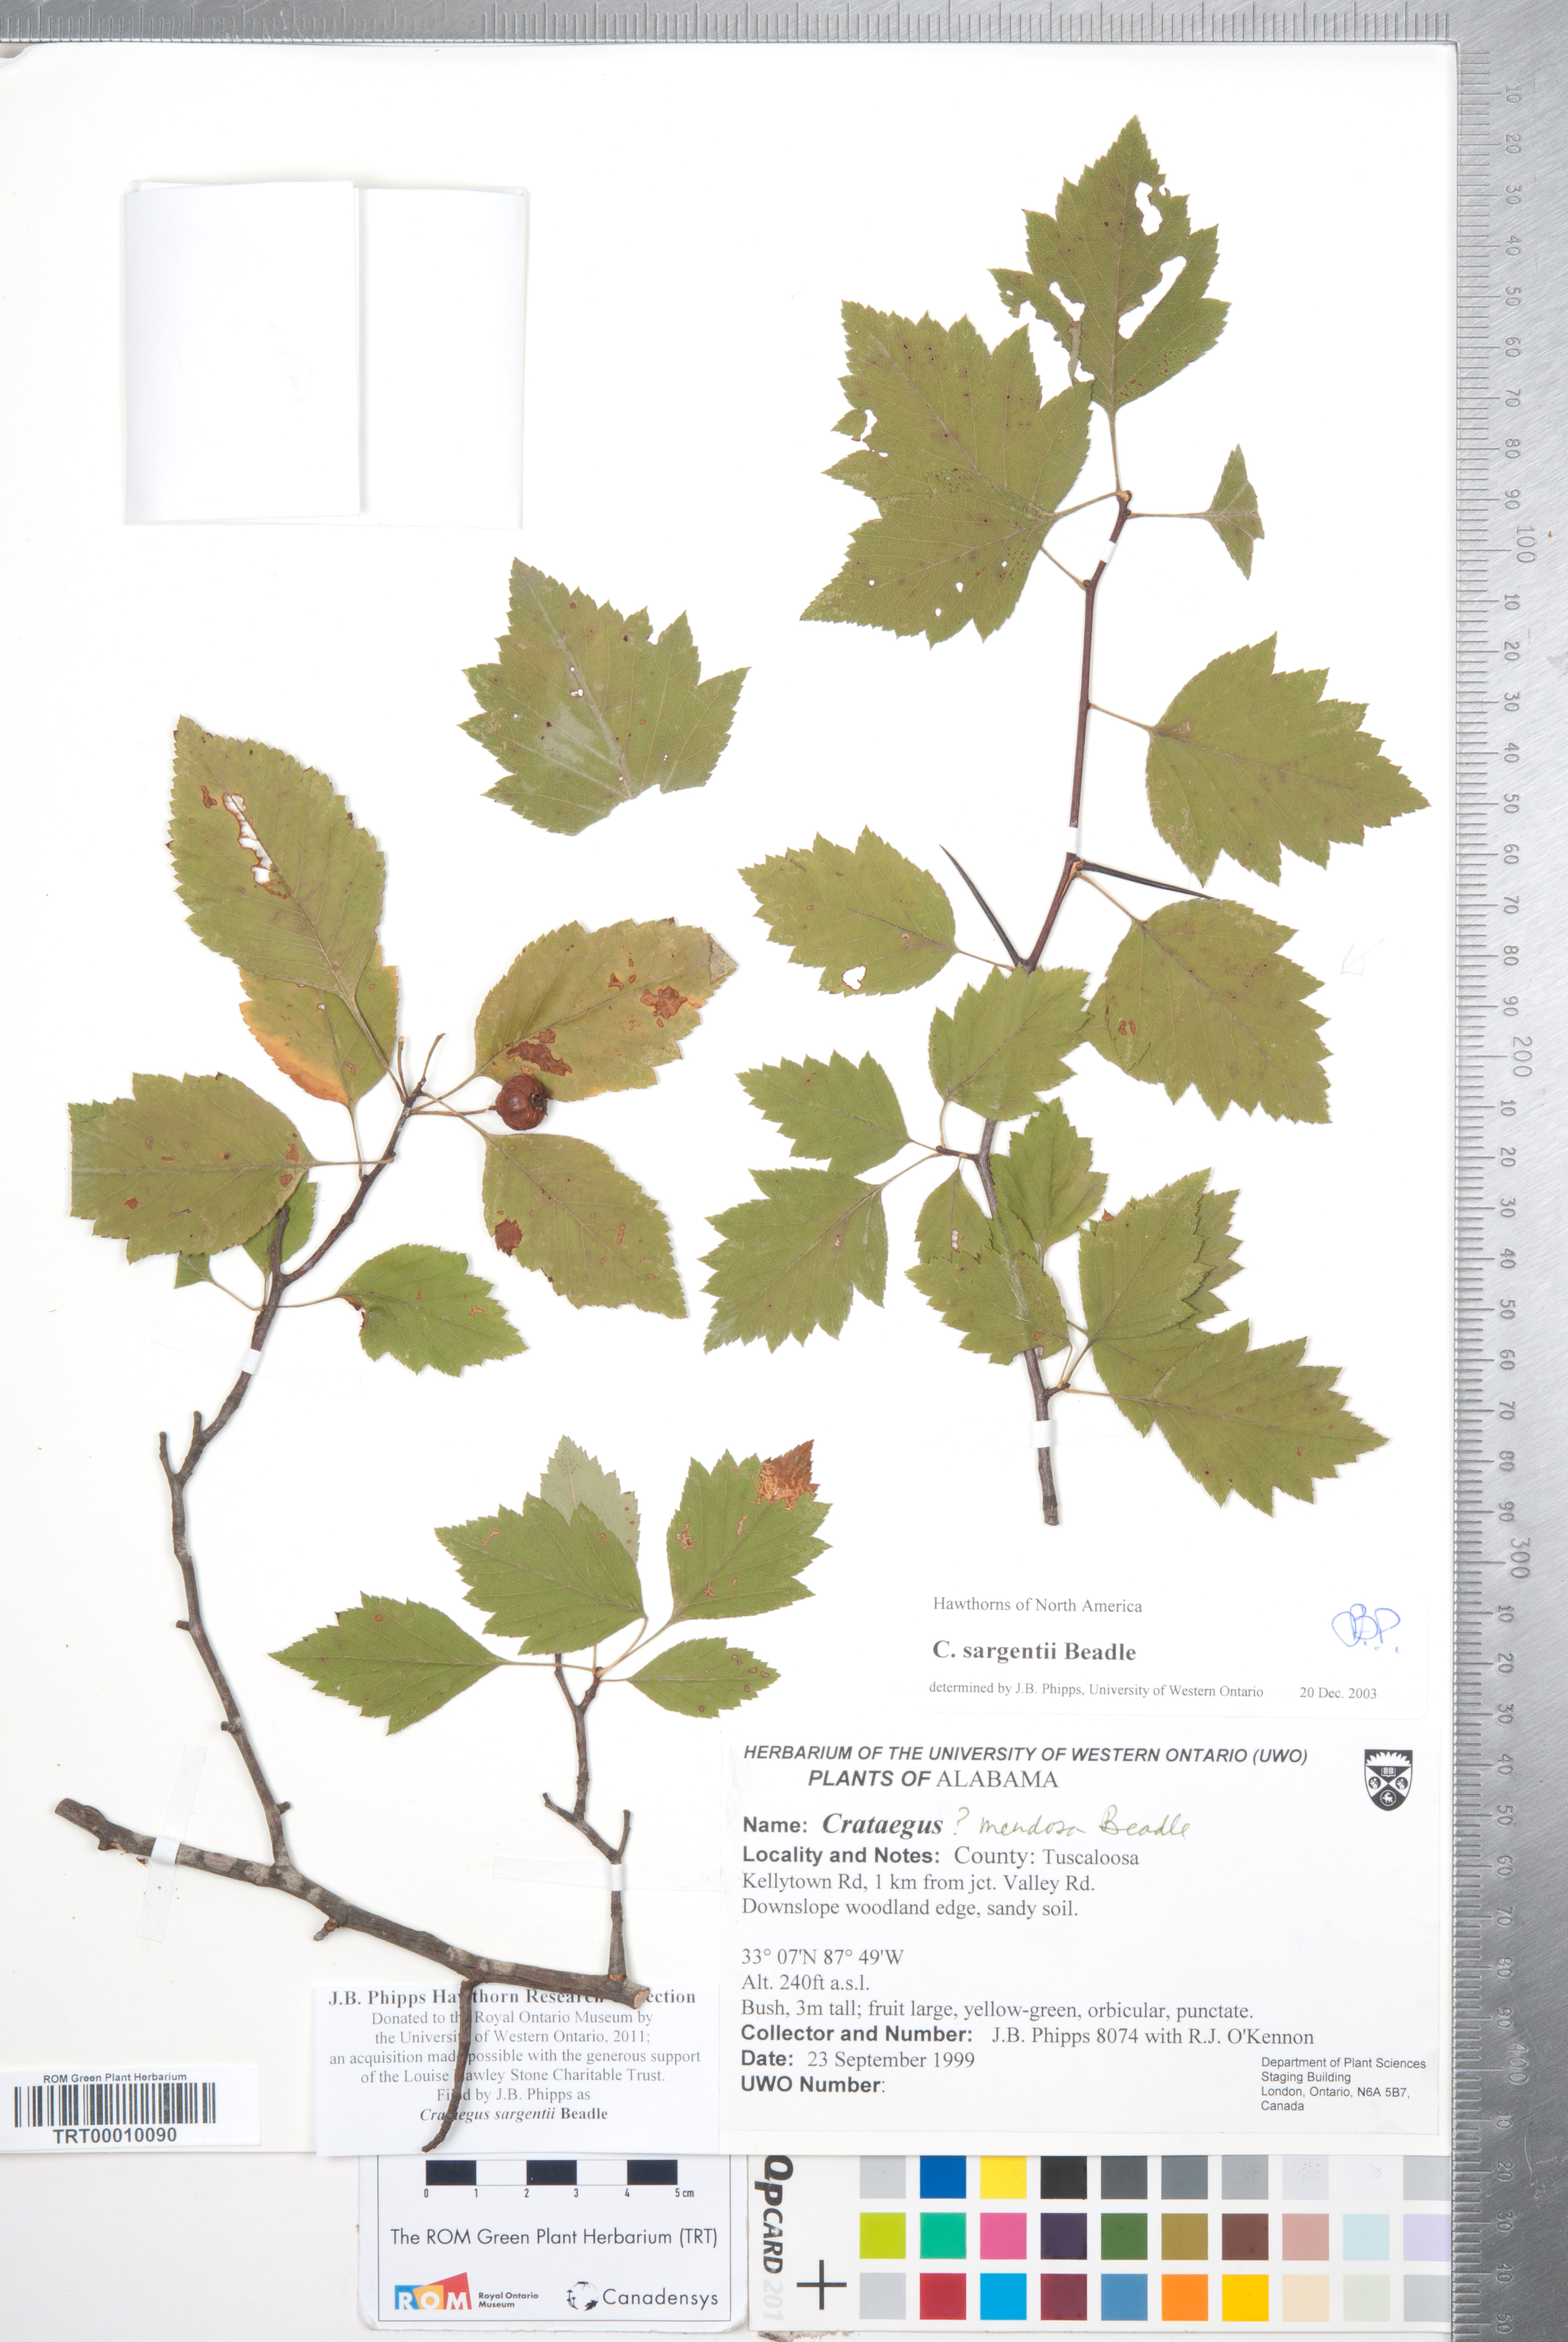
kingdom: Plantae
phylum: Tracheophyta
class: Magnoliopsida
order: Rosales
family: Rosaceae
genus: Crataegus
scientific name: Crataegus sargentii
